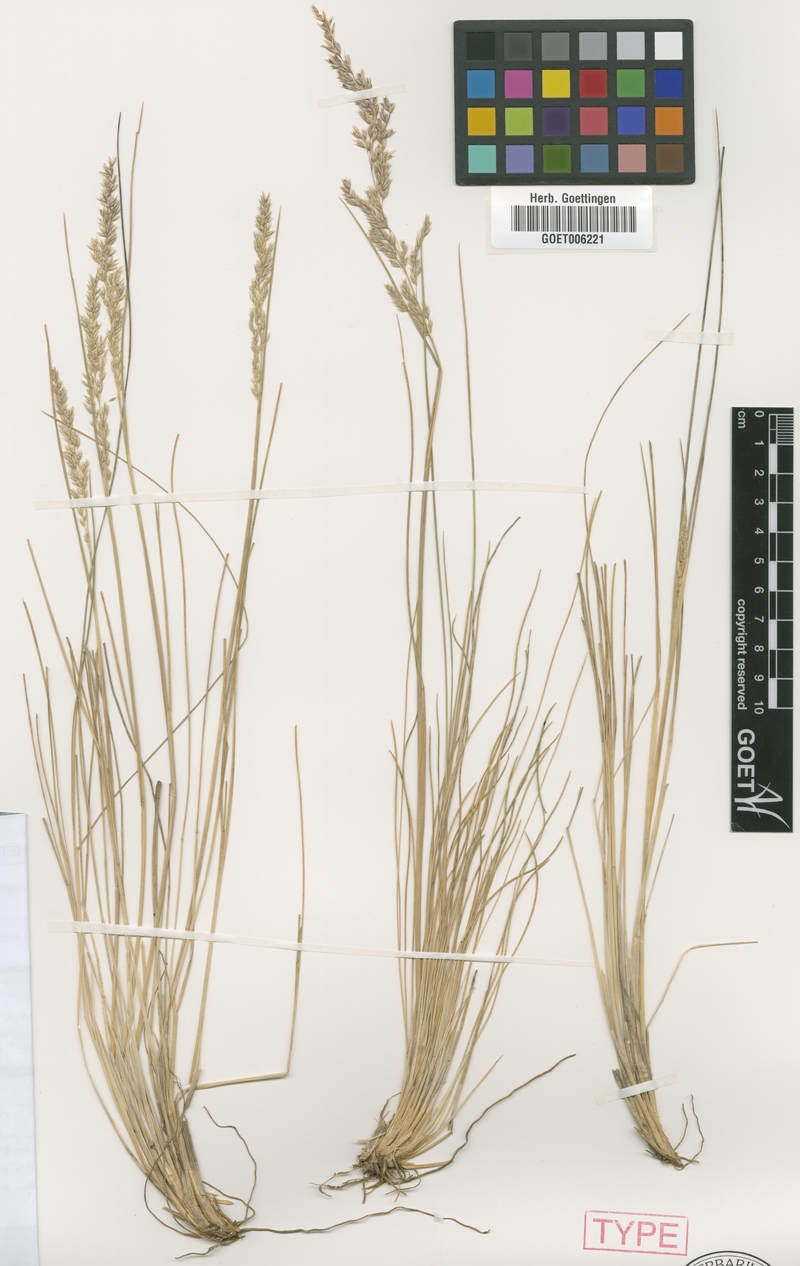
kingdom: Plantae
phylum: Tracheophyta
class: Liliopsida
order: Poales
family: Poaceae
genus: Cinnagrostis
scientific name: Cinnagrostis rosea
